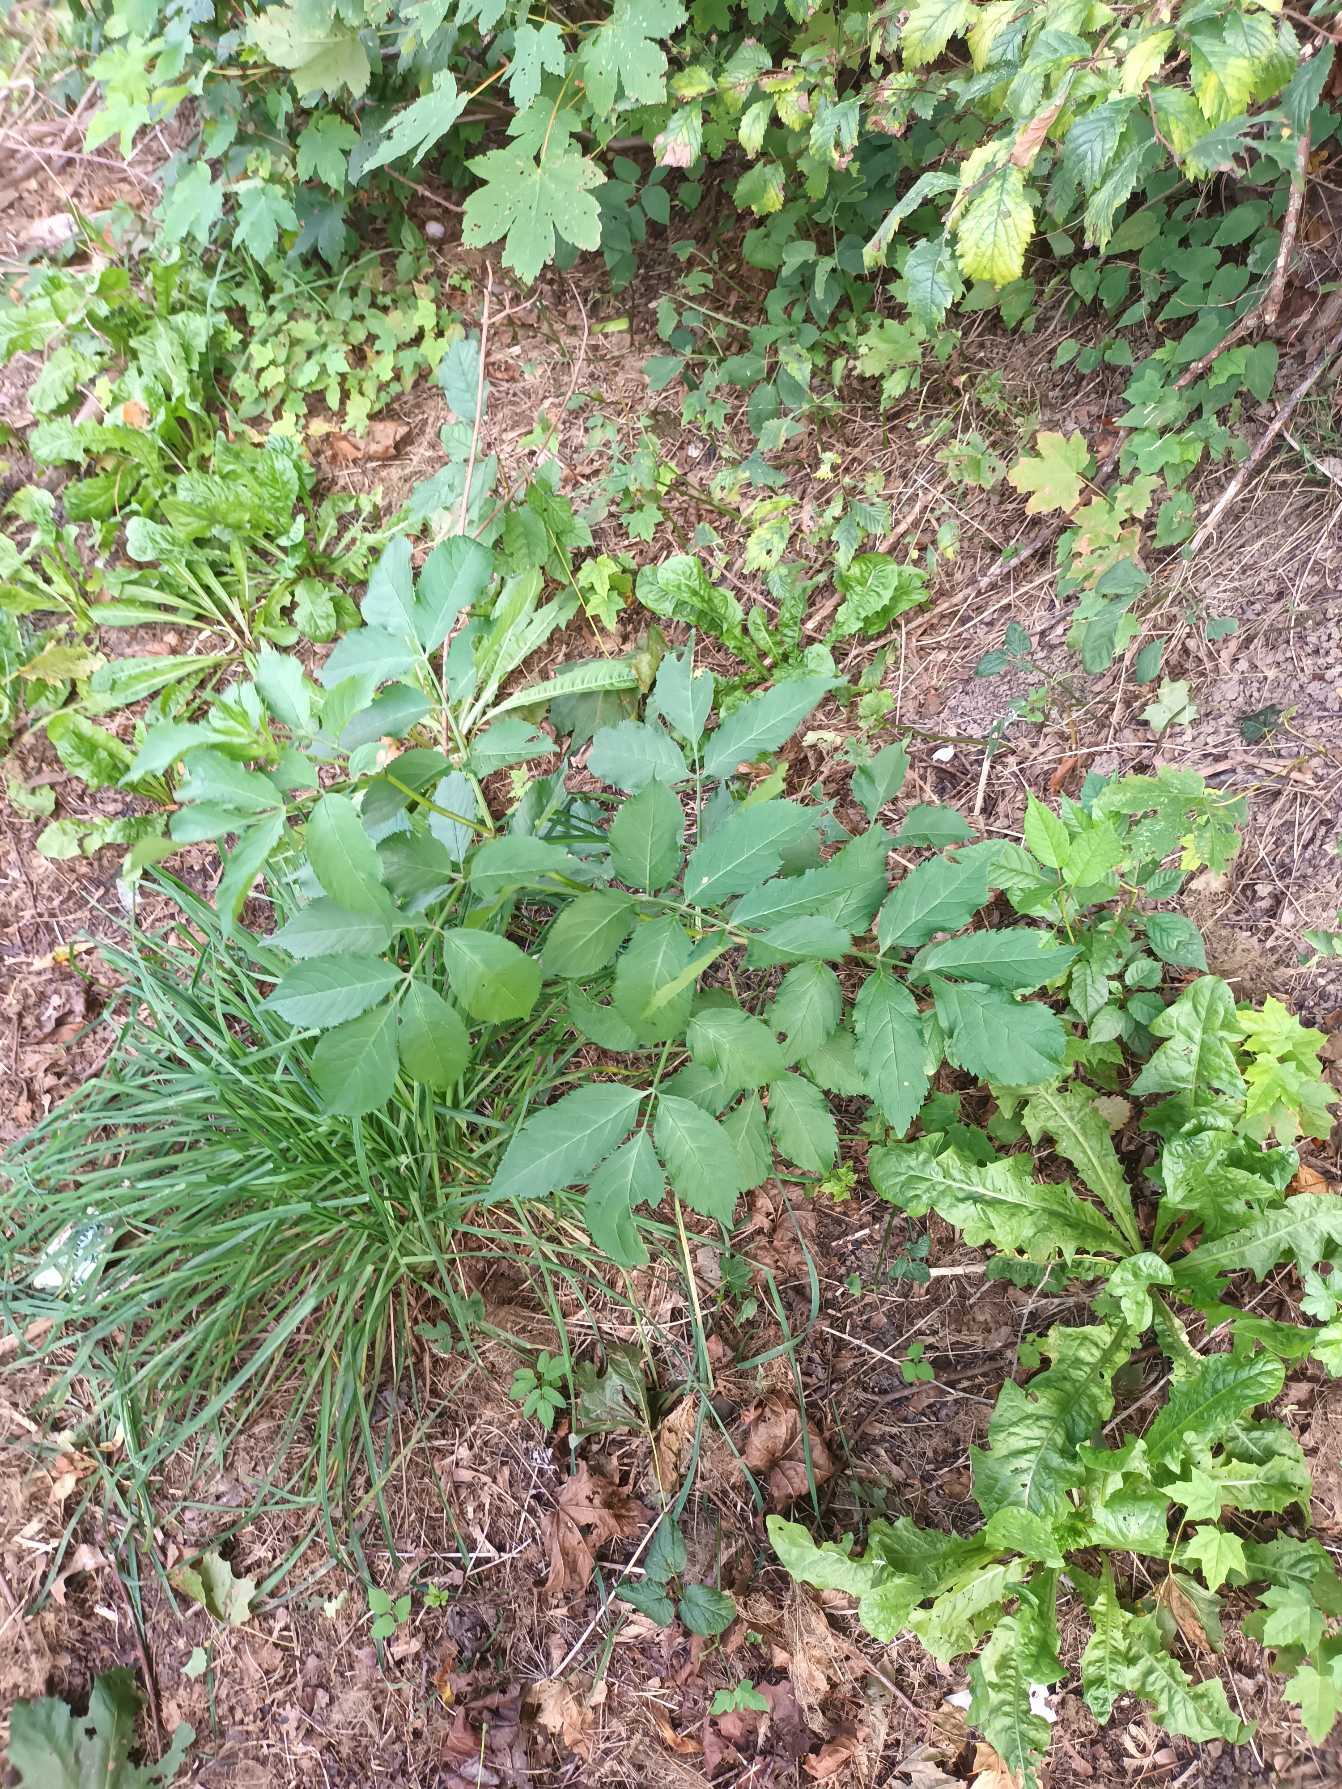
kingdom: Plantae
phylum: Tracheophyta
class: Magnoliopsida
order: Dipsacales
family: Viburnaceae
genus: Sambucus
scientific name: Sambucus nigra
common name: Almindelig hyld
